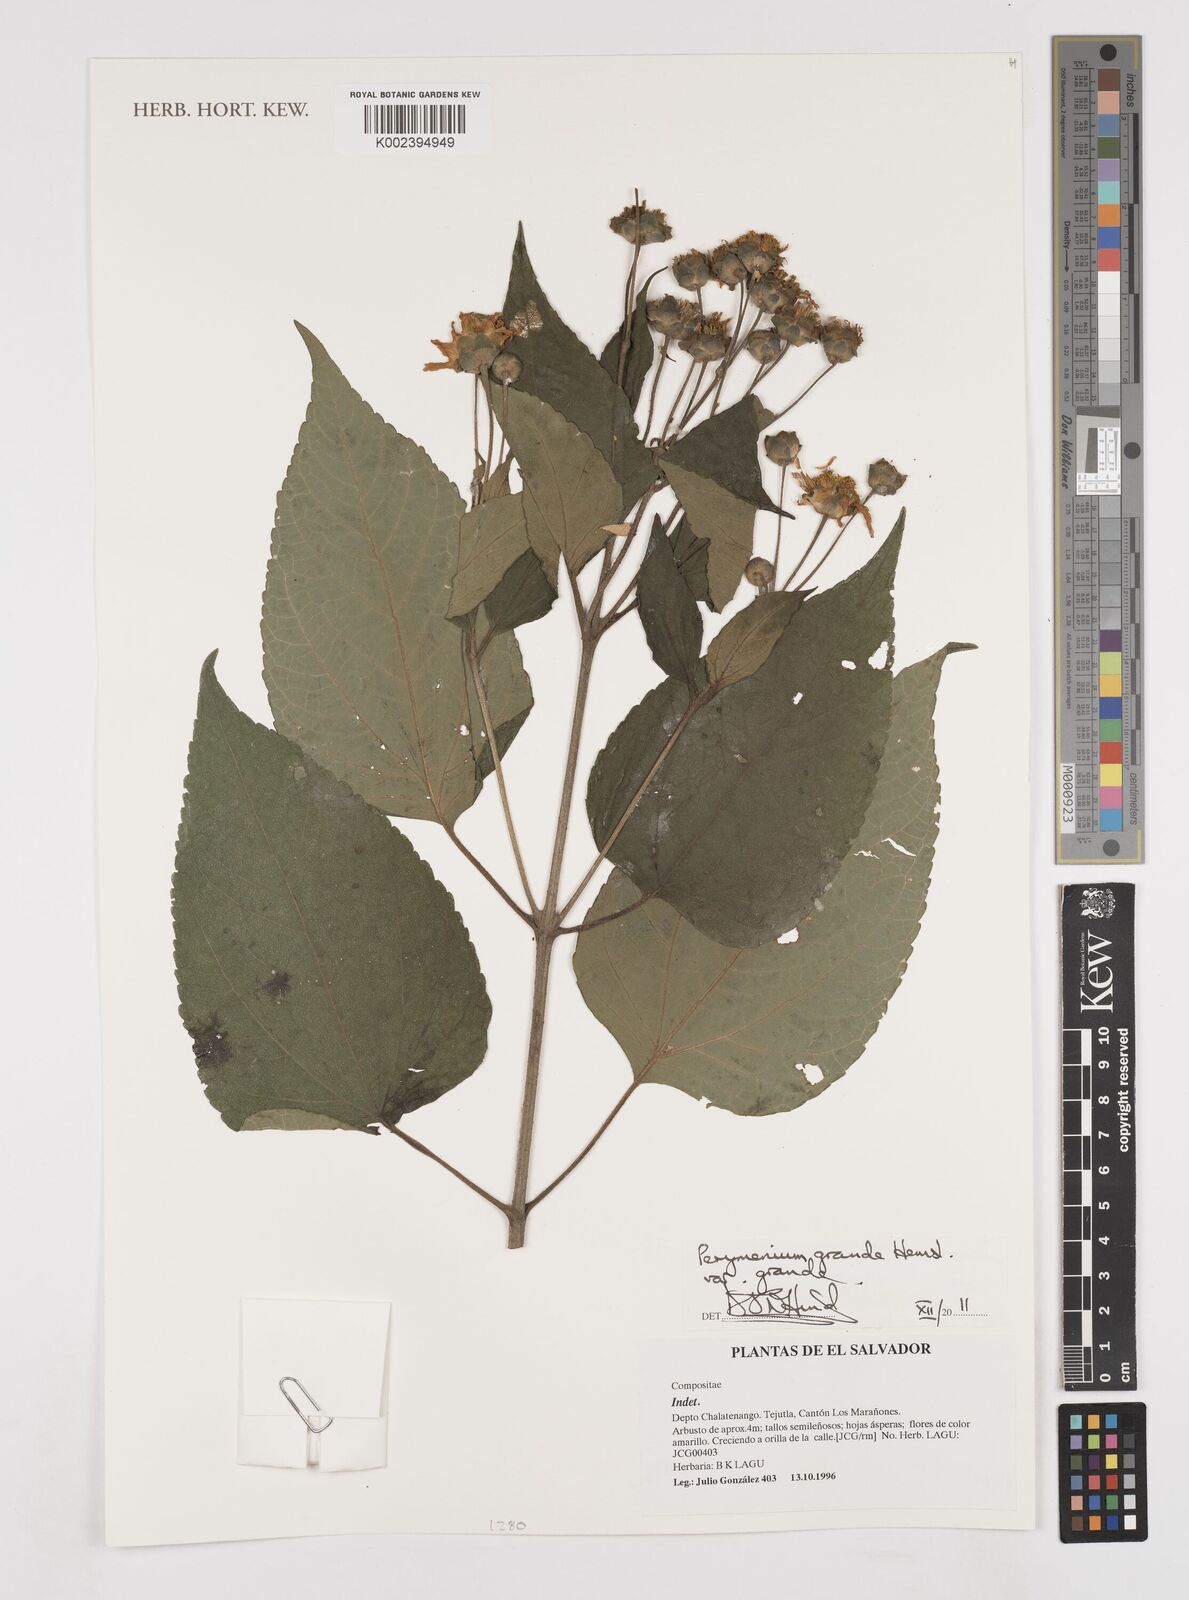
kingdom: Plantae
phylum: Tracheophyta
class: Magnoliopsida
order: Asterales
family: Asteraceae
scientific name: Asteraceae
